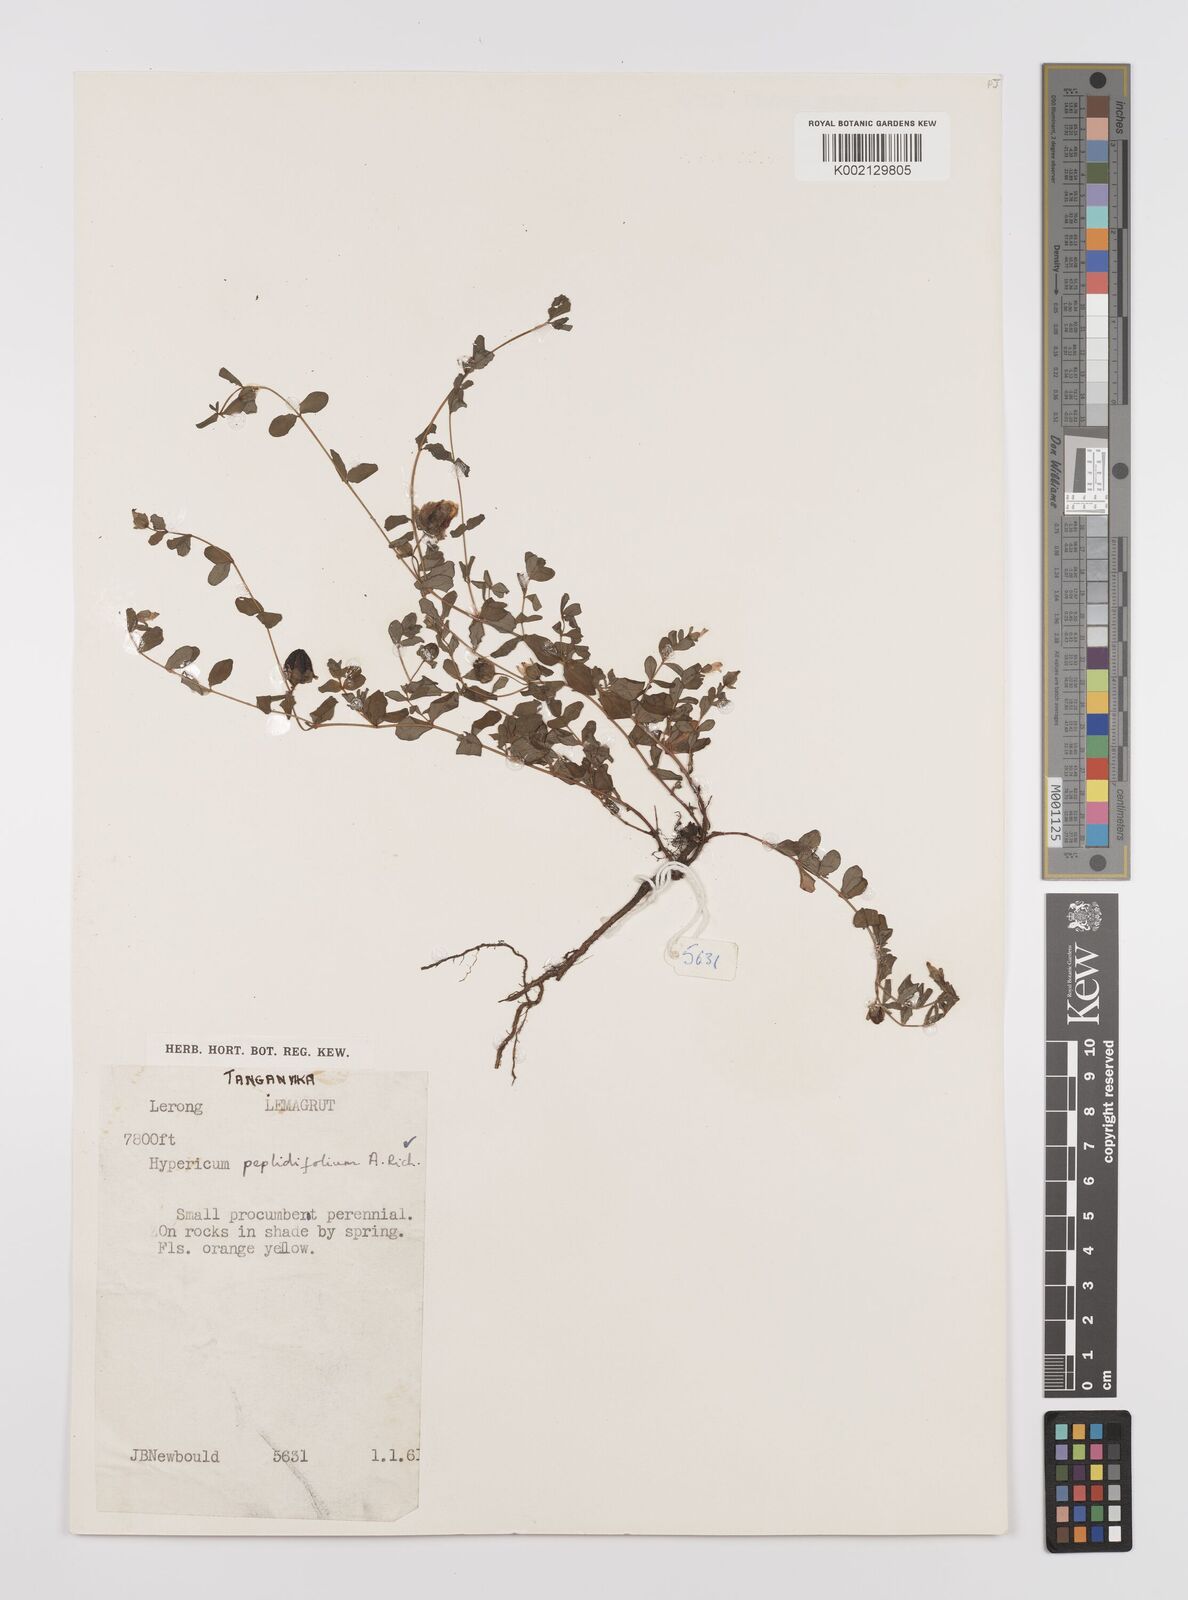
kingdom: Plantae
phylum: Tracheophyta
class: Magnoliopsida
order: Malpighiales
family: Hypericaceae
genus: Hypericum
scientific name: Hypericum peplidifolium
